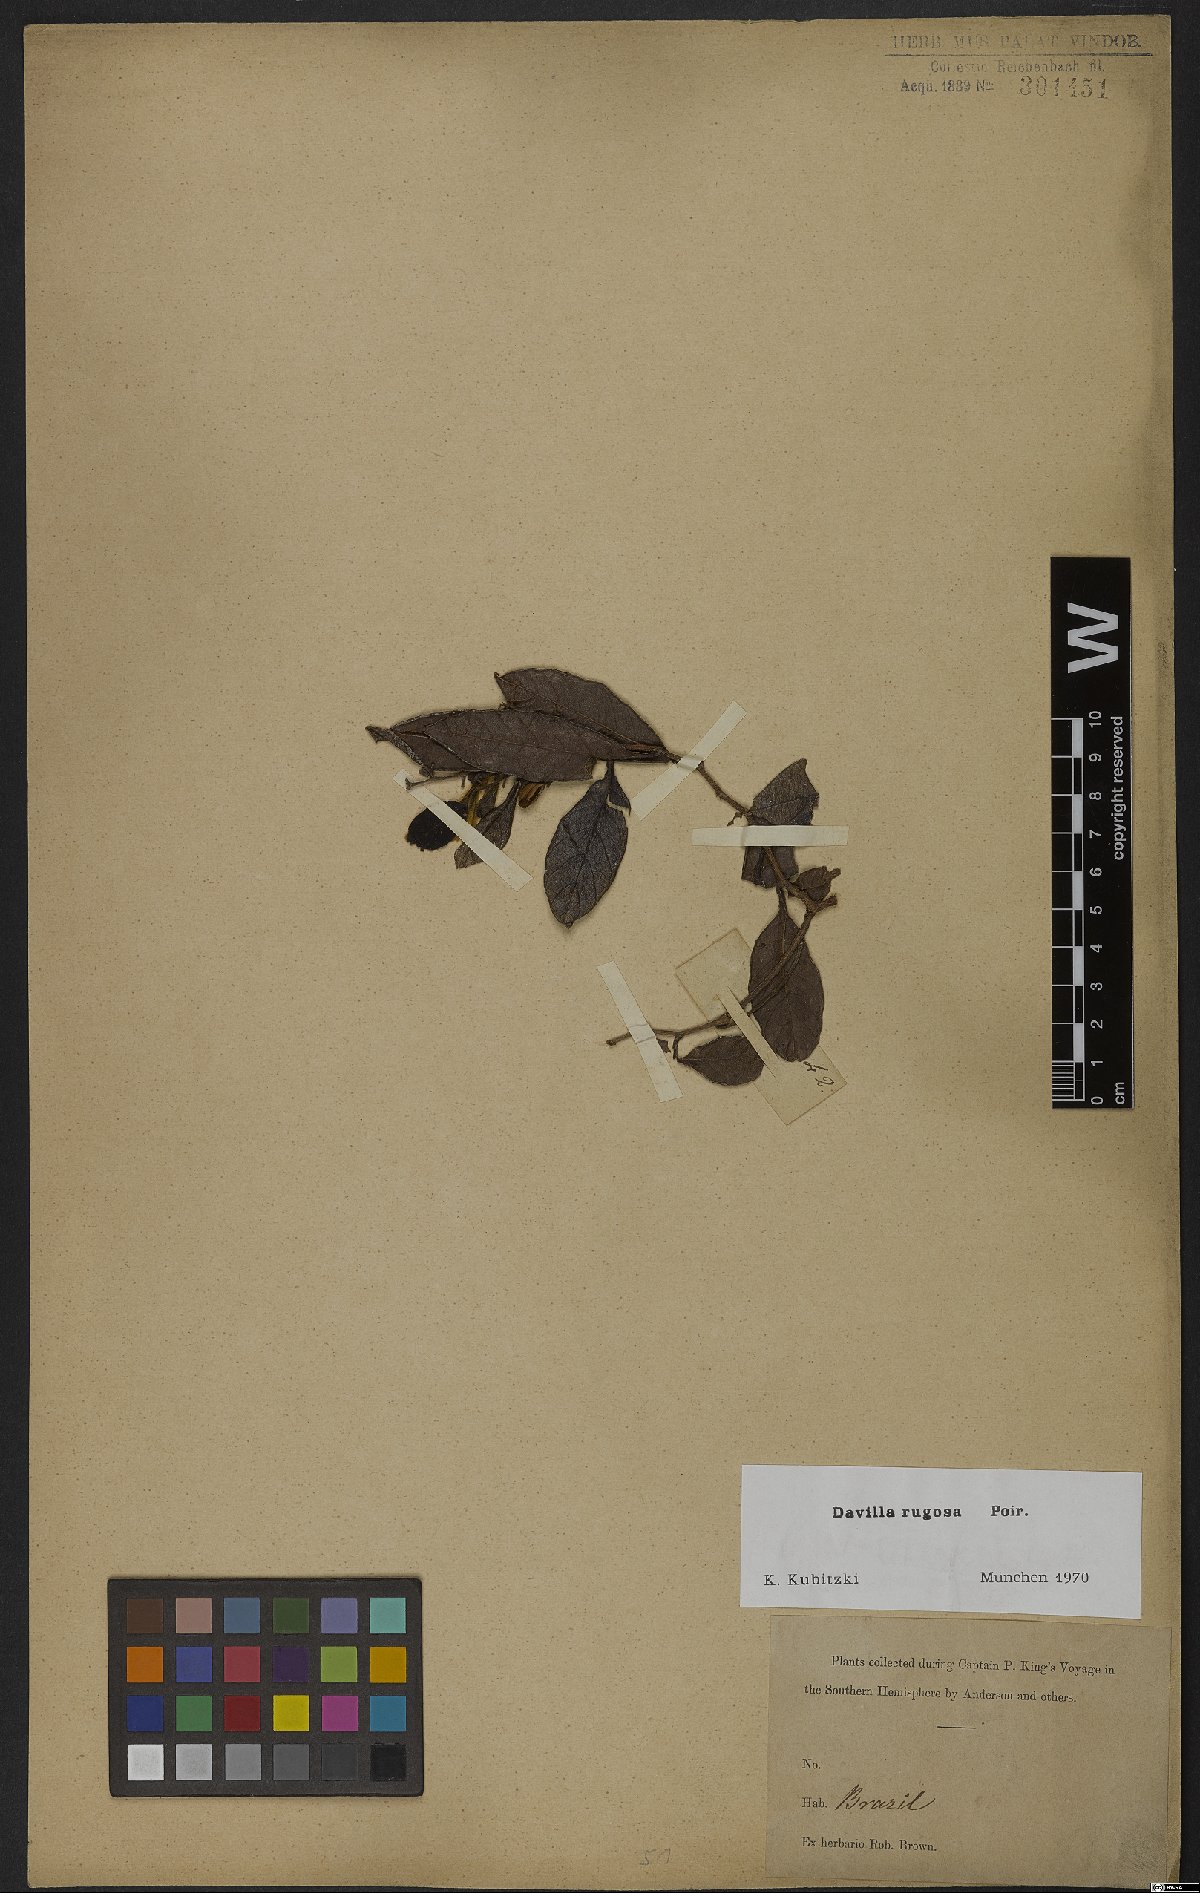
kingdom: Plantae
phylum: Tracheophyta
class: Magnoliopsida
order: Dilleniales
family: Dilleniaceae
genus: Davilla
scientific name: Davilla rugosa
